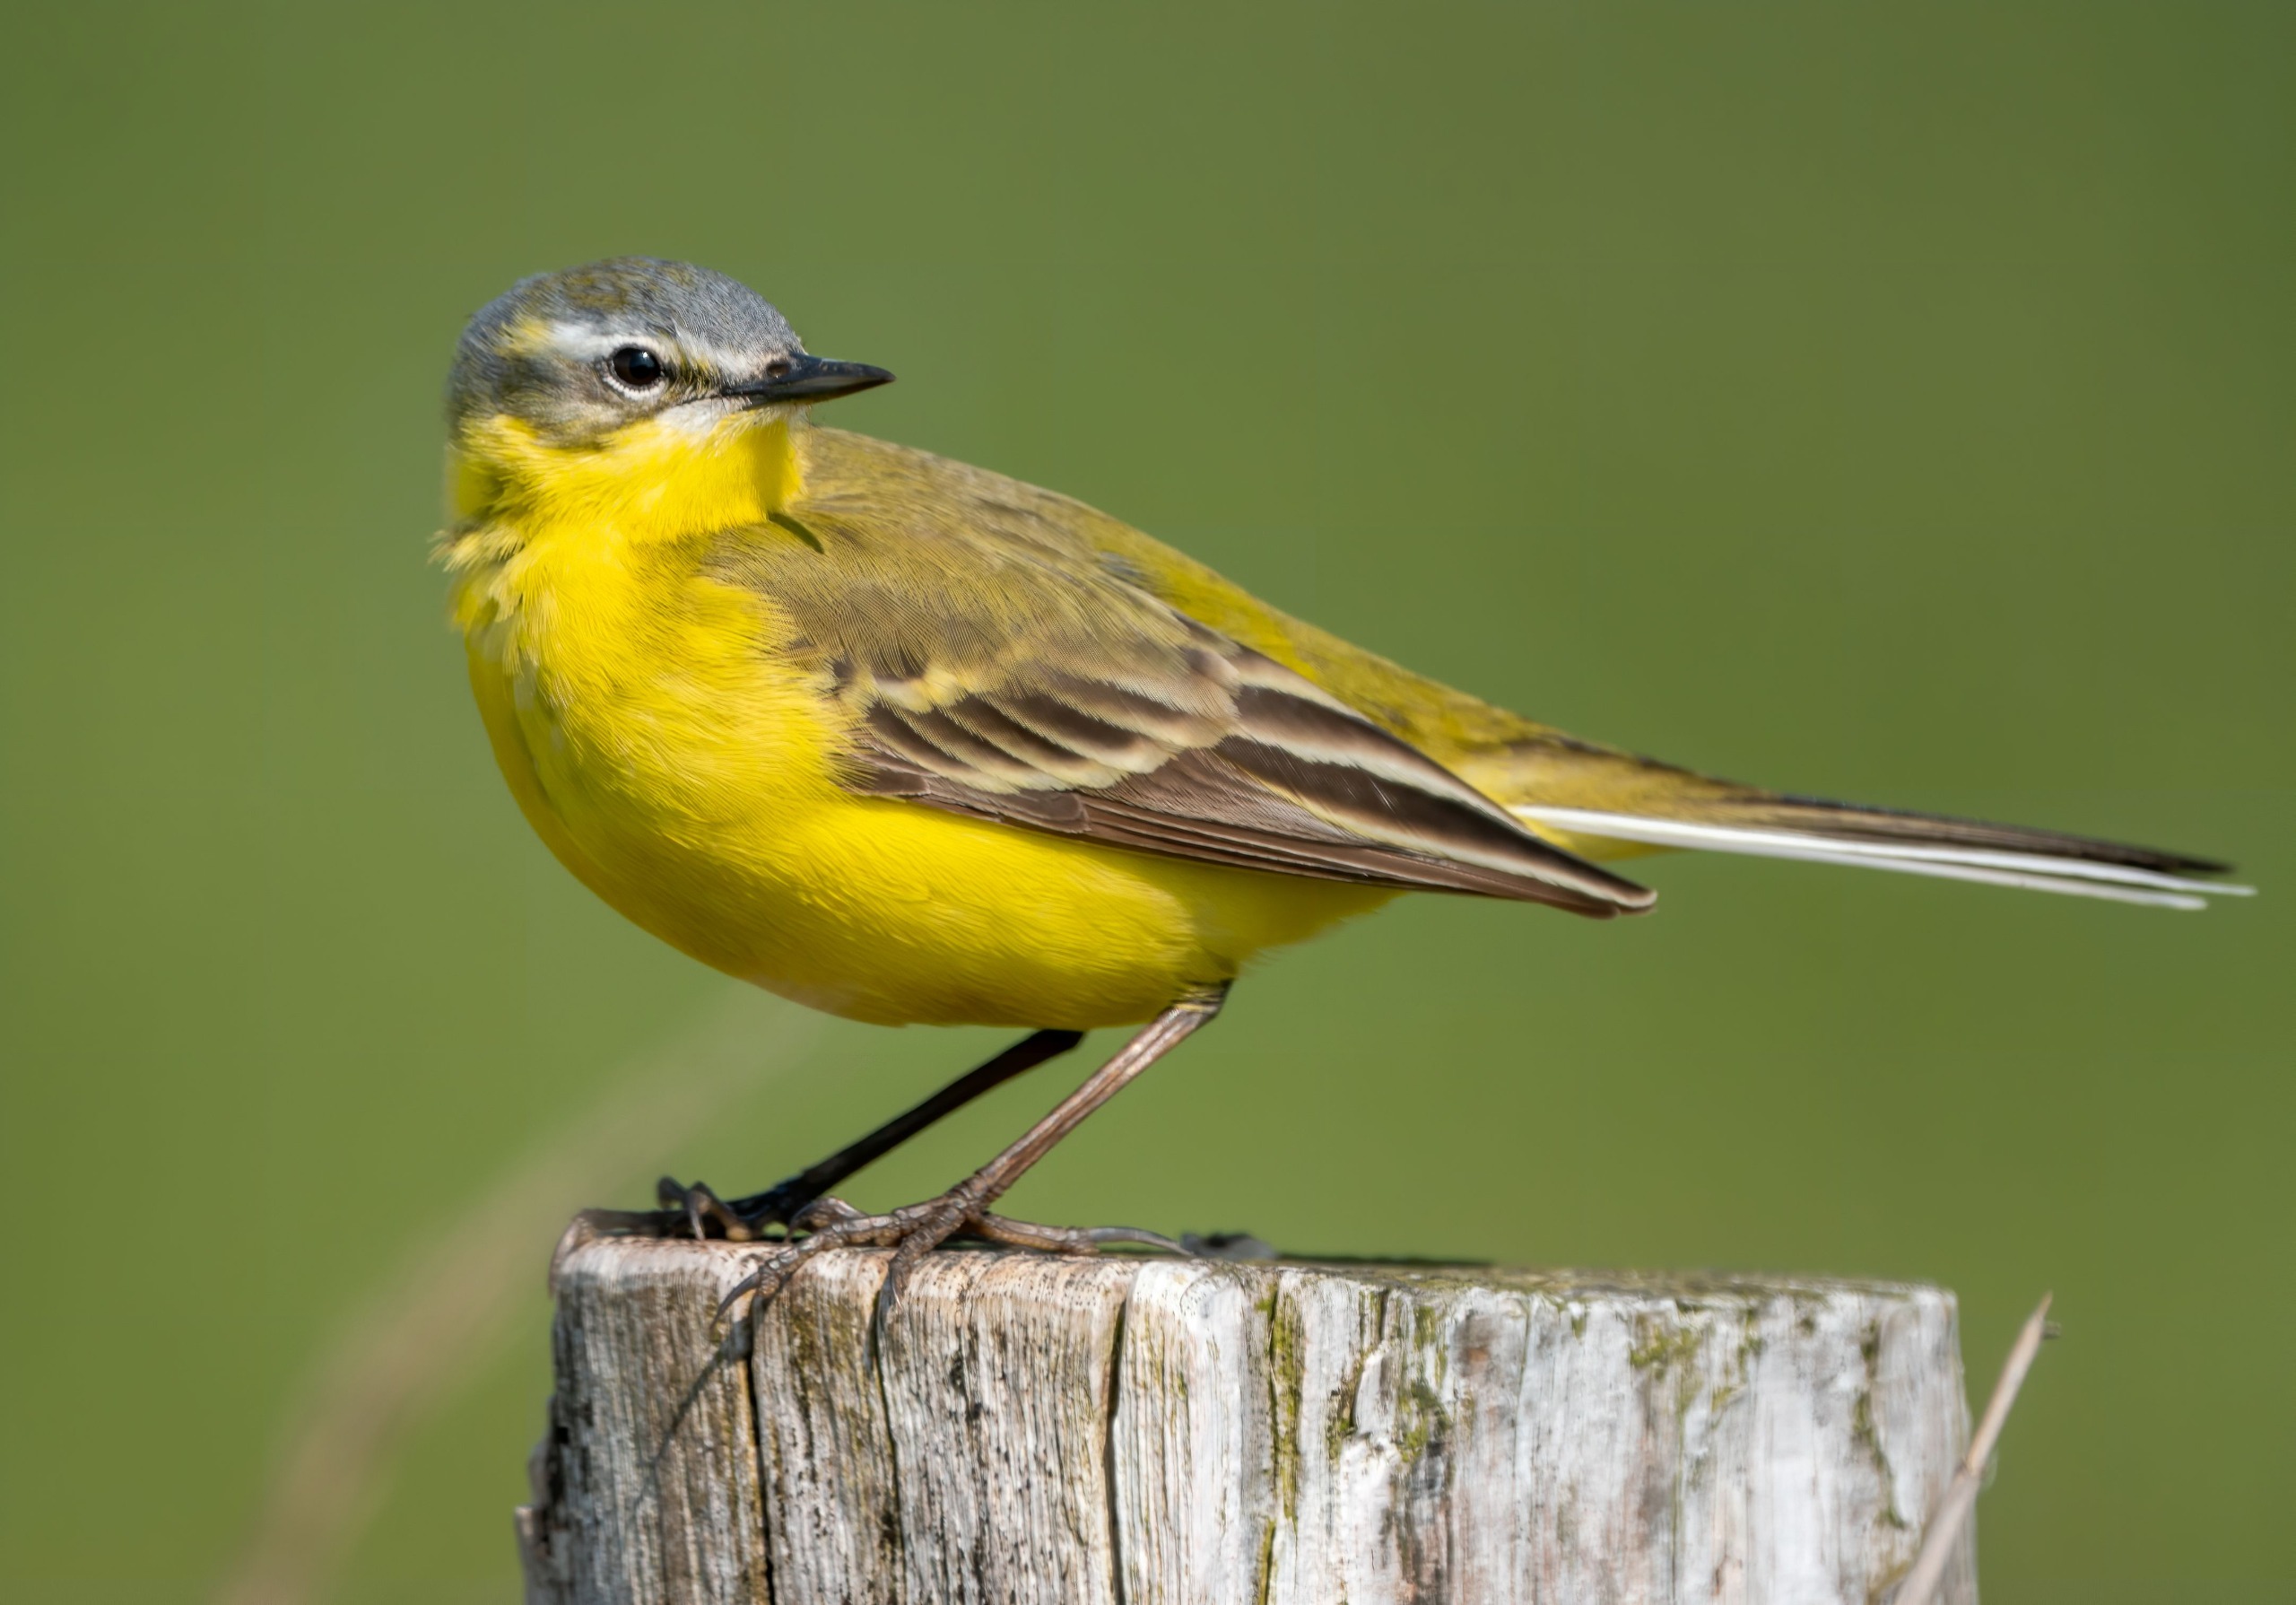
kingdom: Animalia
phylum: Chordata
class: Aves
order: Passeriformes
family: Motacillidae
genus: Motacilla
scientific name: Motacilla flava
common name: Gul vipstjert
